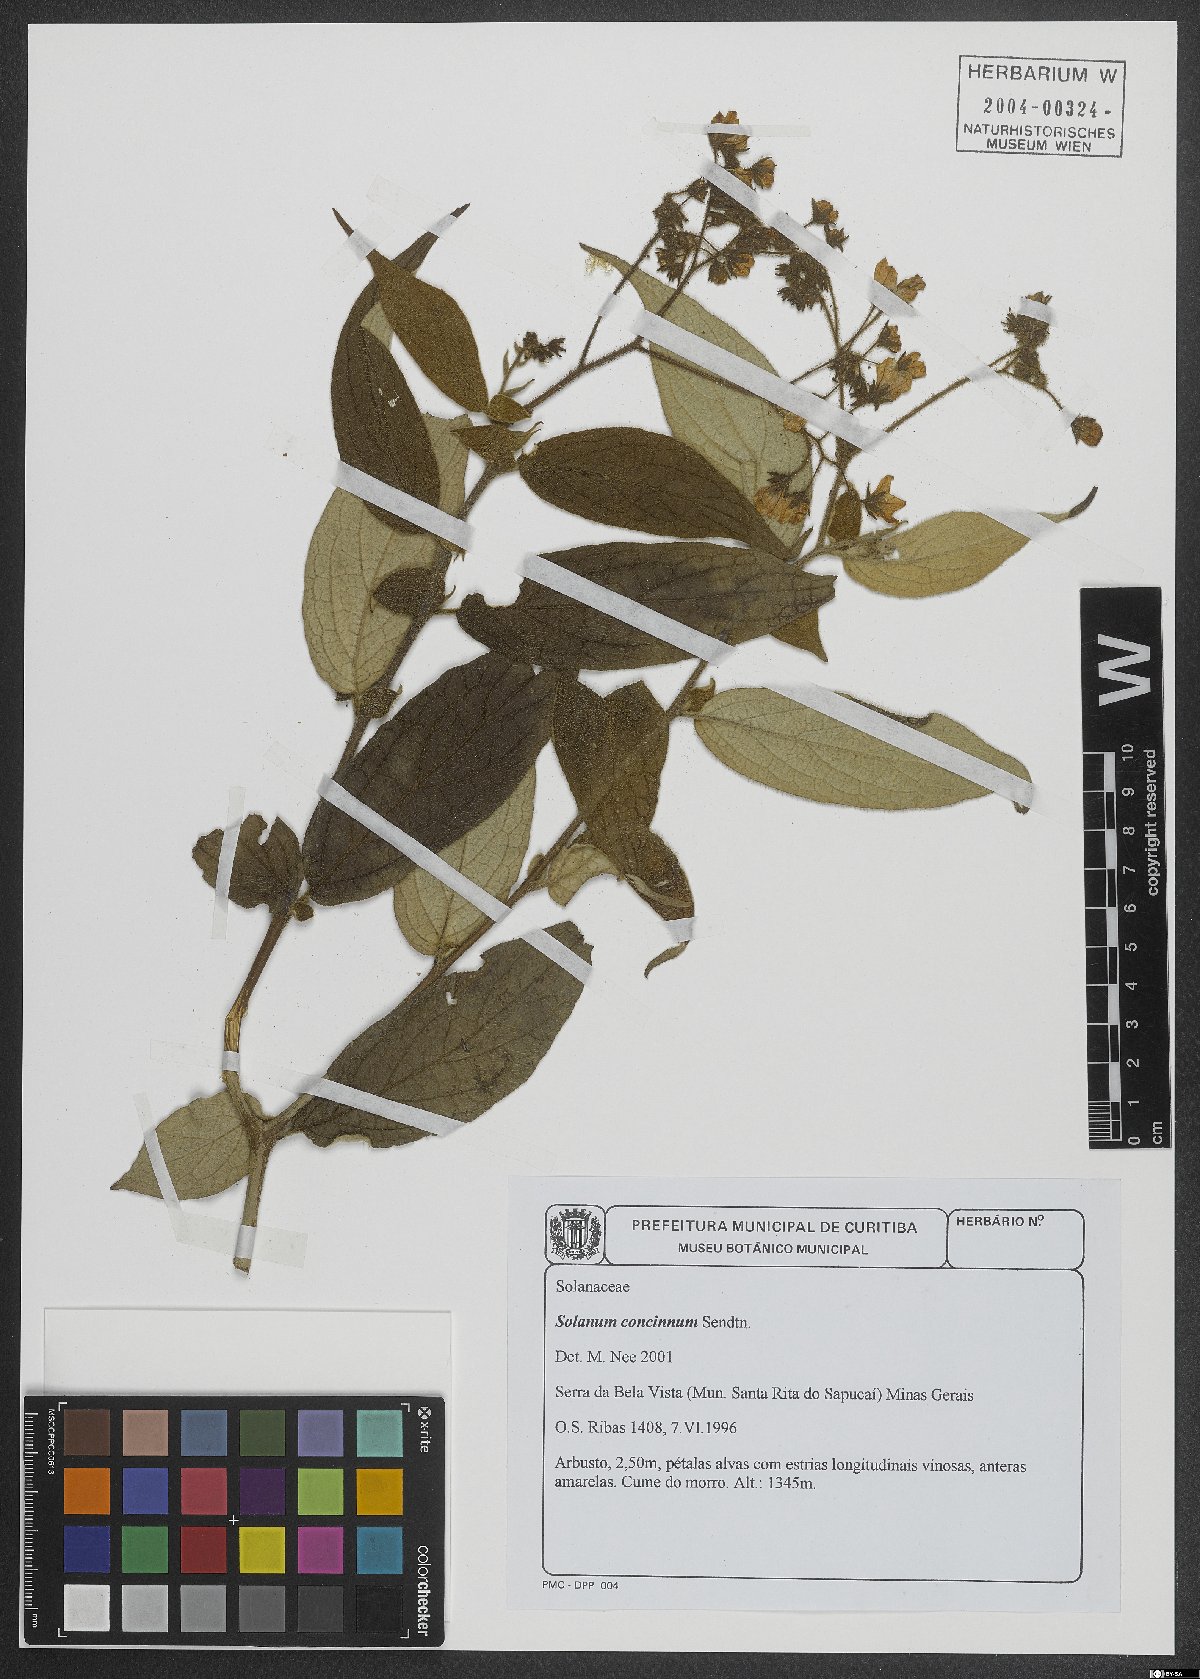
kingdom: Plantae
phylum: Tracheophyta
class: Magnoliopsida
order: Solanales
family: Solanaceae
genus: Solanum
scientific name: Solanum concinnum
